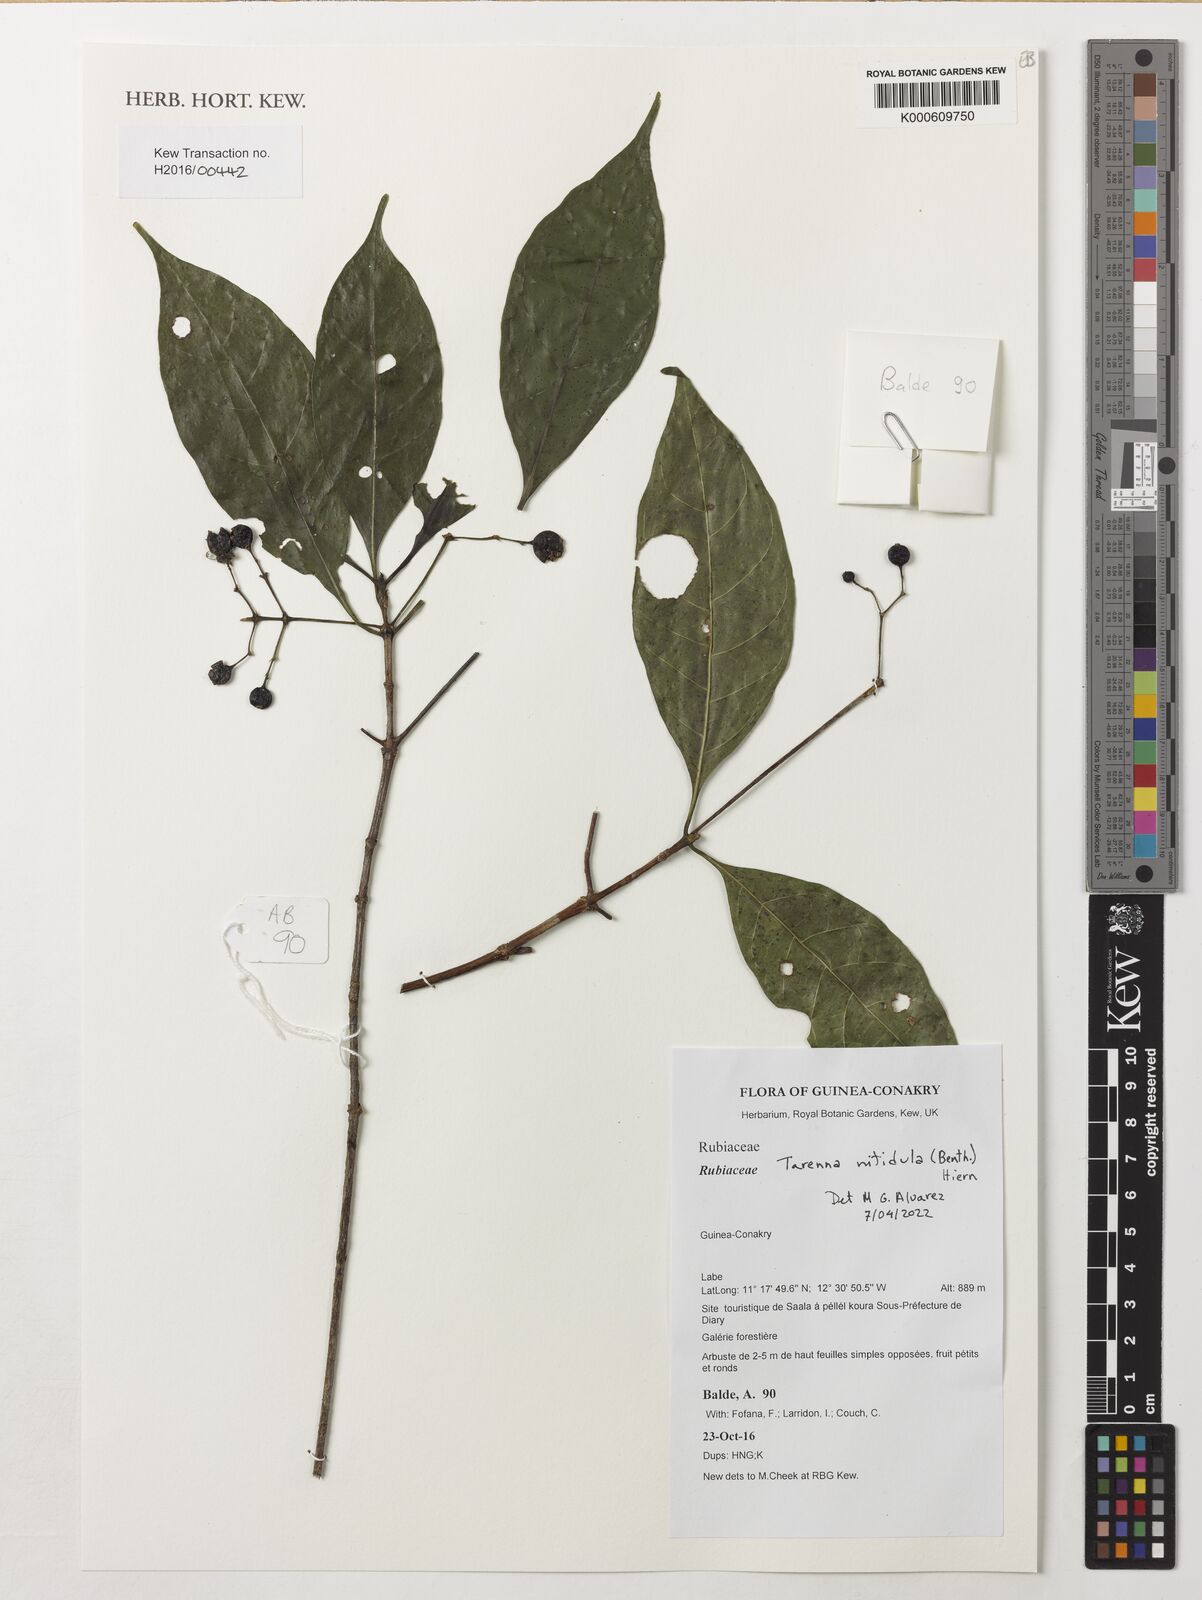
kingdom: Plantae
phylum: Tracheophyta
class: Magnoliopsida
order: Gentianales
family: Rubiaceae
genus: Tarenna
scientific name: Tarenna nitidula
